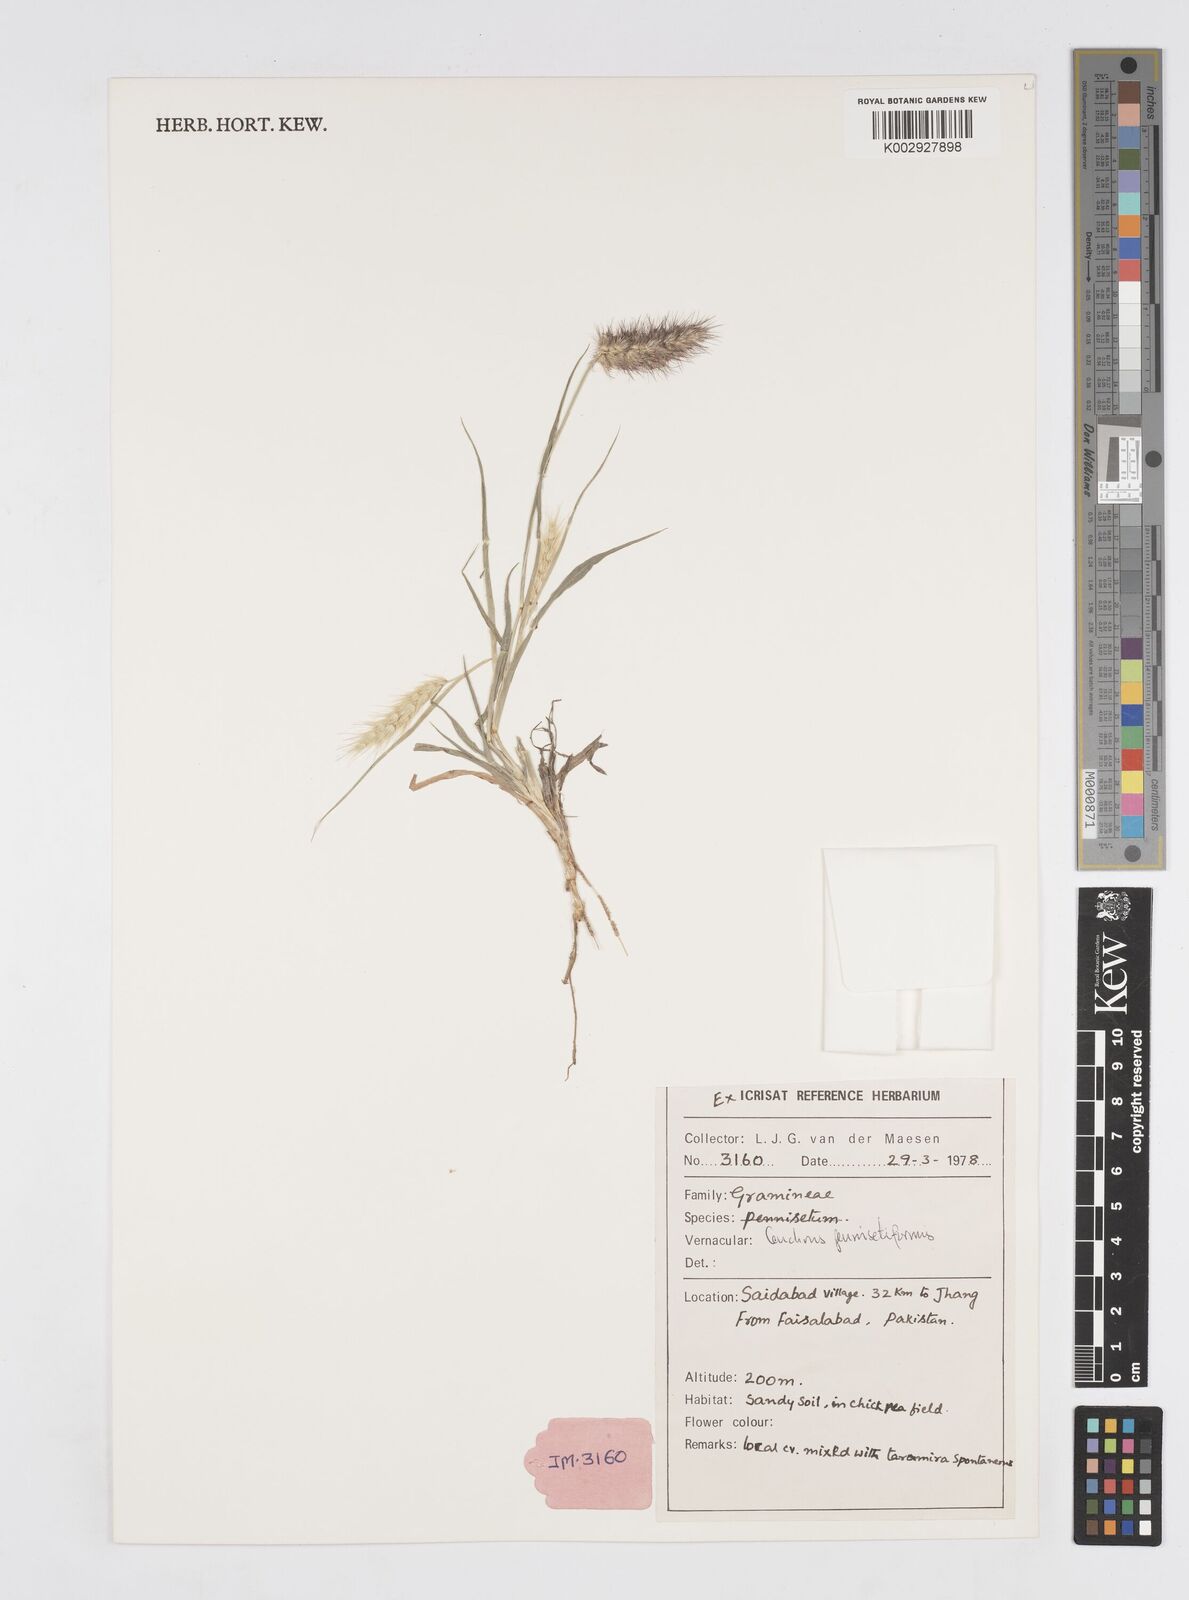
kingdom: Plantae
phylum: Tracheophyta
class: Liliopsida
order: Poales
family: Poaceae
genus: Cenchrus
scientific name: Cenchrus pennisetiformis
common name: Cloncurry
